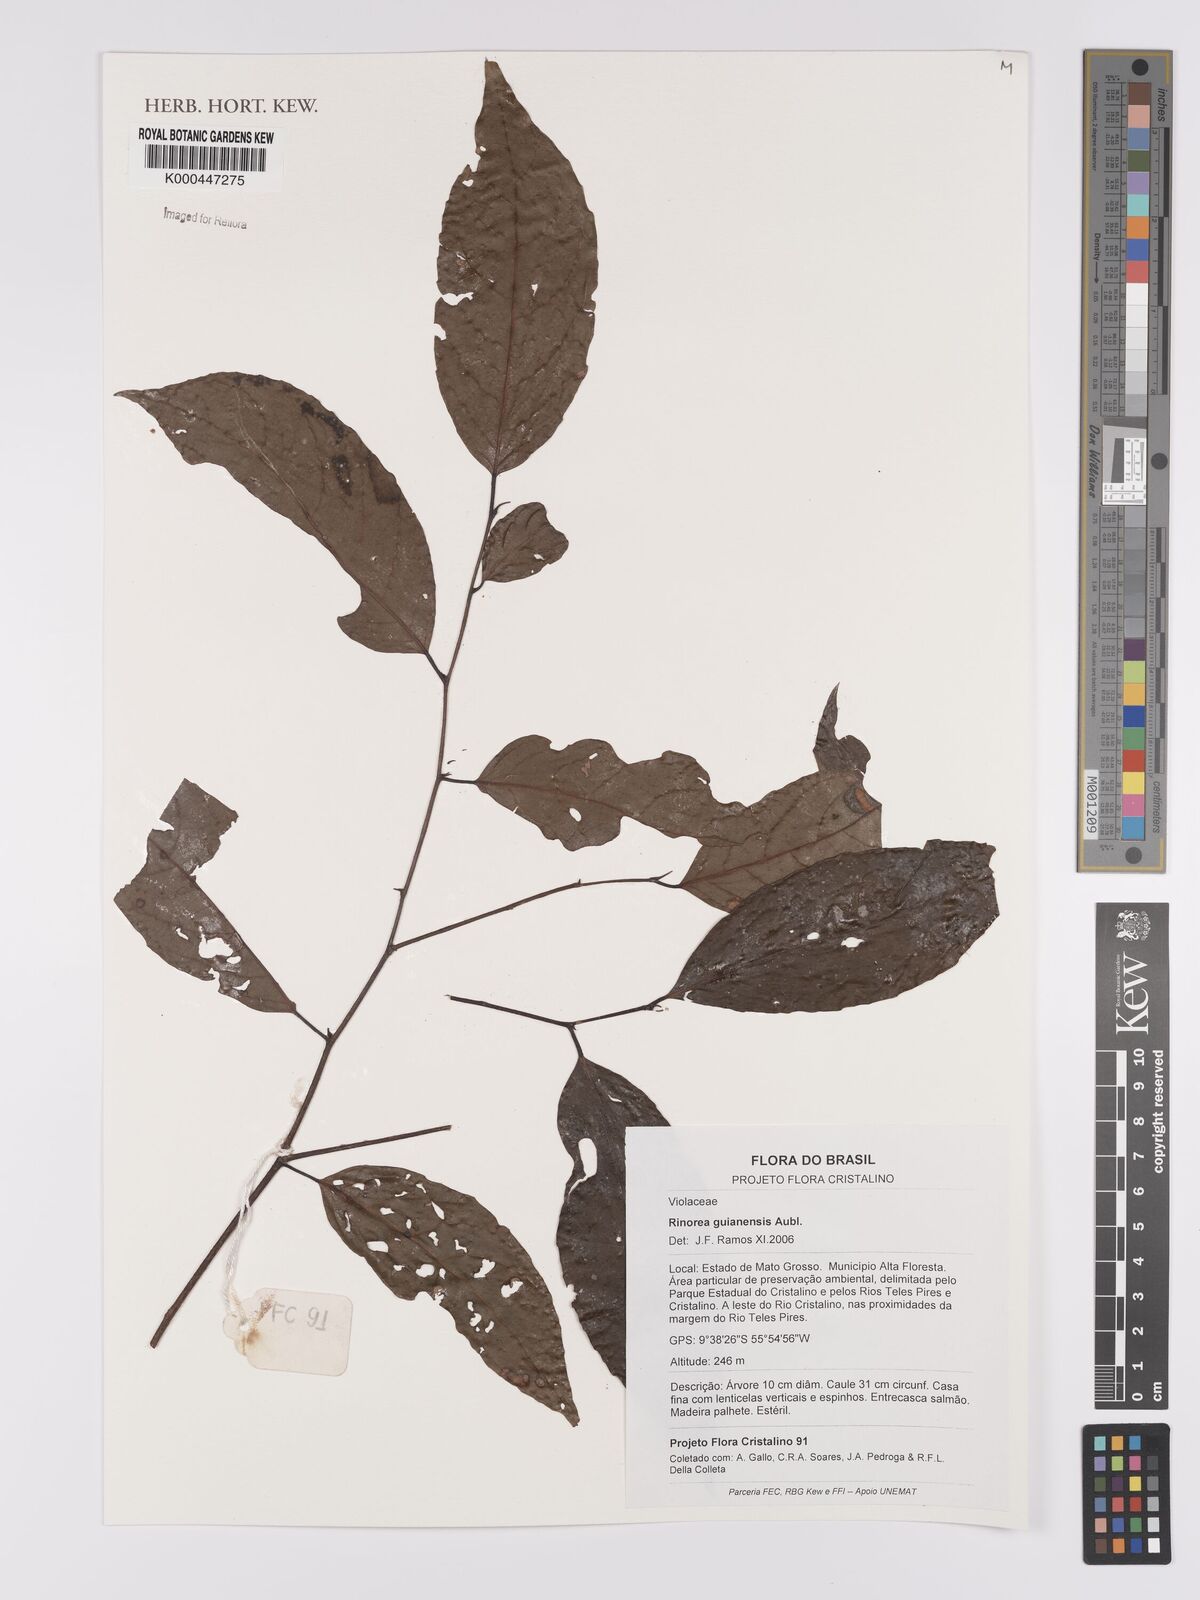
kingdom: Plantae
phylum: Tracheophyta
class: Magnoliopsida
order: Malpighiales
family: Violaceae
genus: Rinorea
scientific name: Rinorea guianensis
